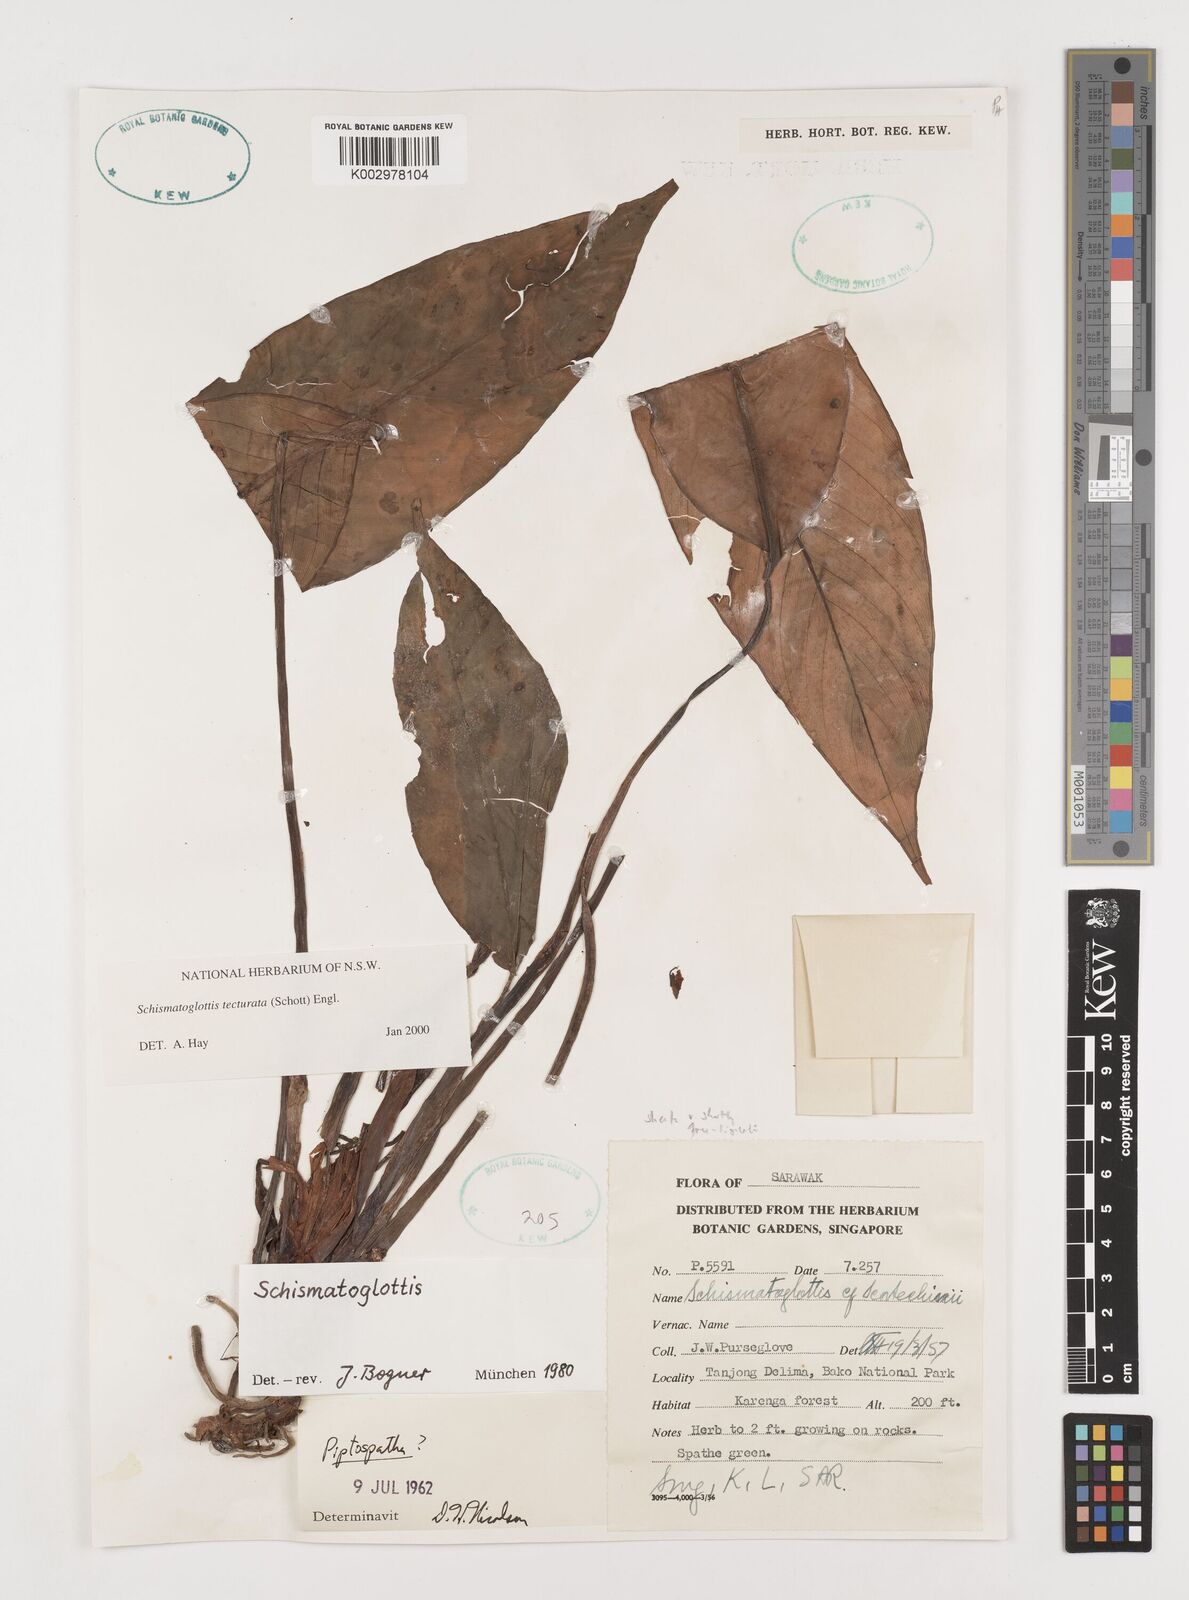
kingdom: Plantae
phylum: Tracheophyta
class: Liliopsida
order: Zingiberales
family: Costaceae
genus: Colobogynium
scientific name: Colobogynium variegatum
